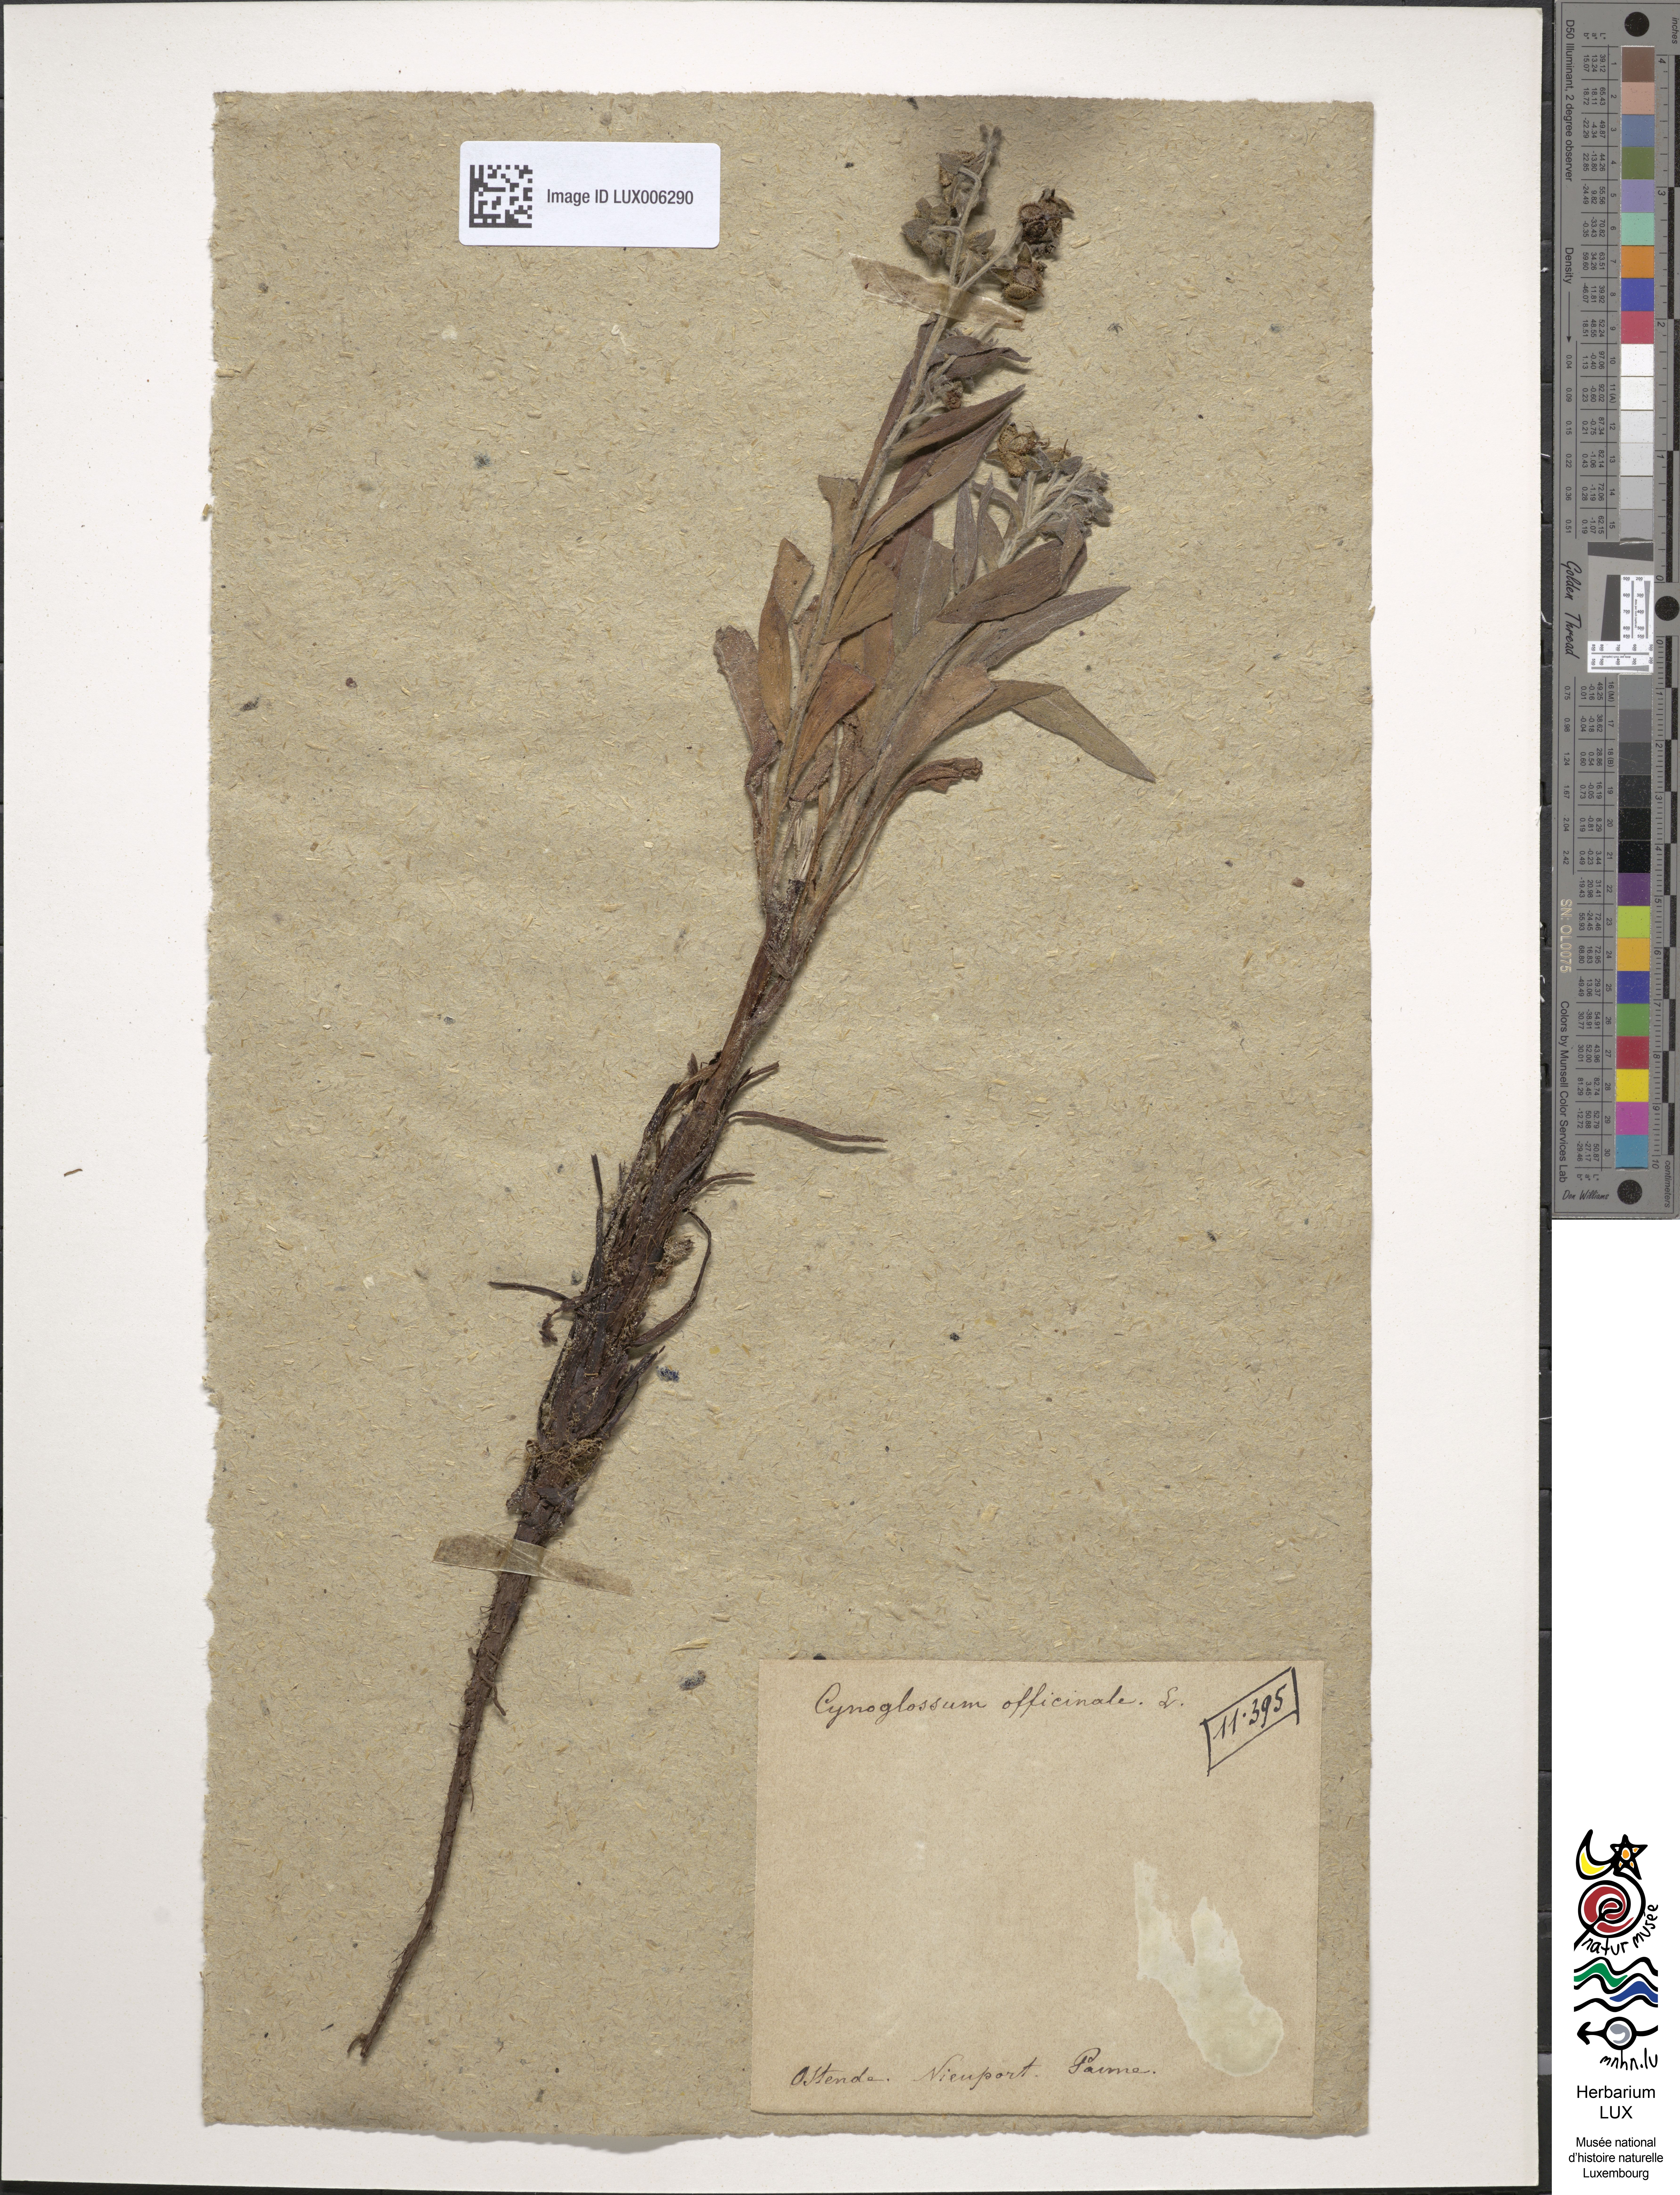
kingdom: Plantae
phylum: Tracheophyta
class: Magnoliopsida
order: Boraginales
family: Boraginaceae
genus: Cynoglossum
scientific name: Cynoglossum officinale
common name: Hound's-tongue
